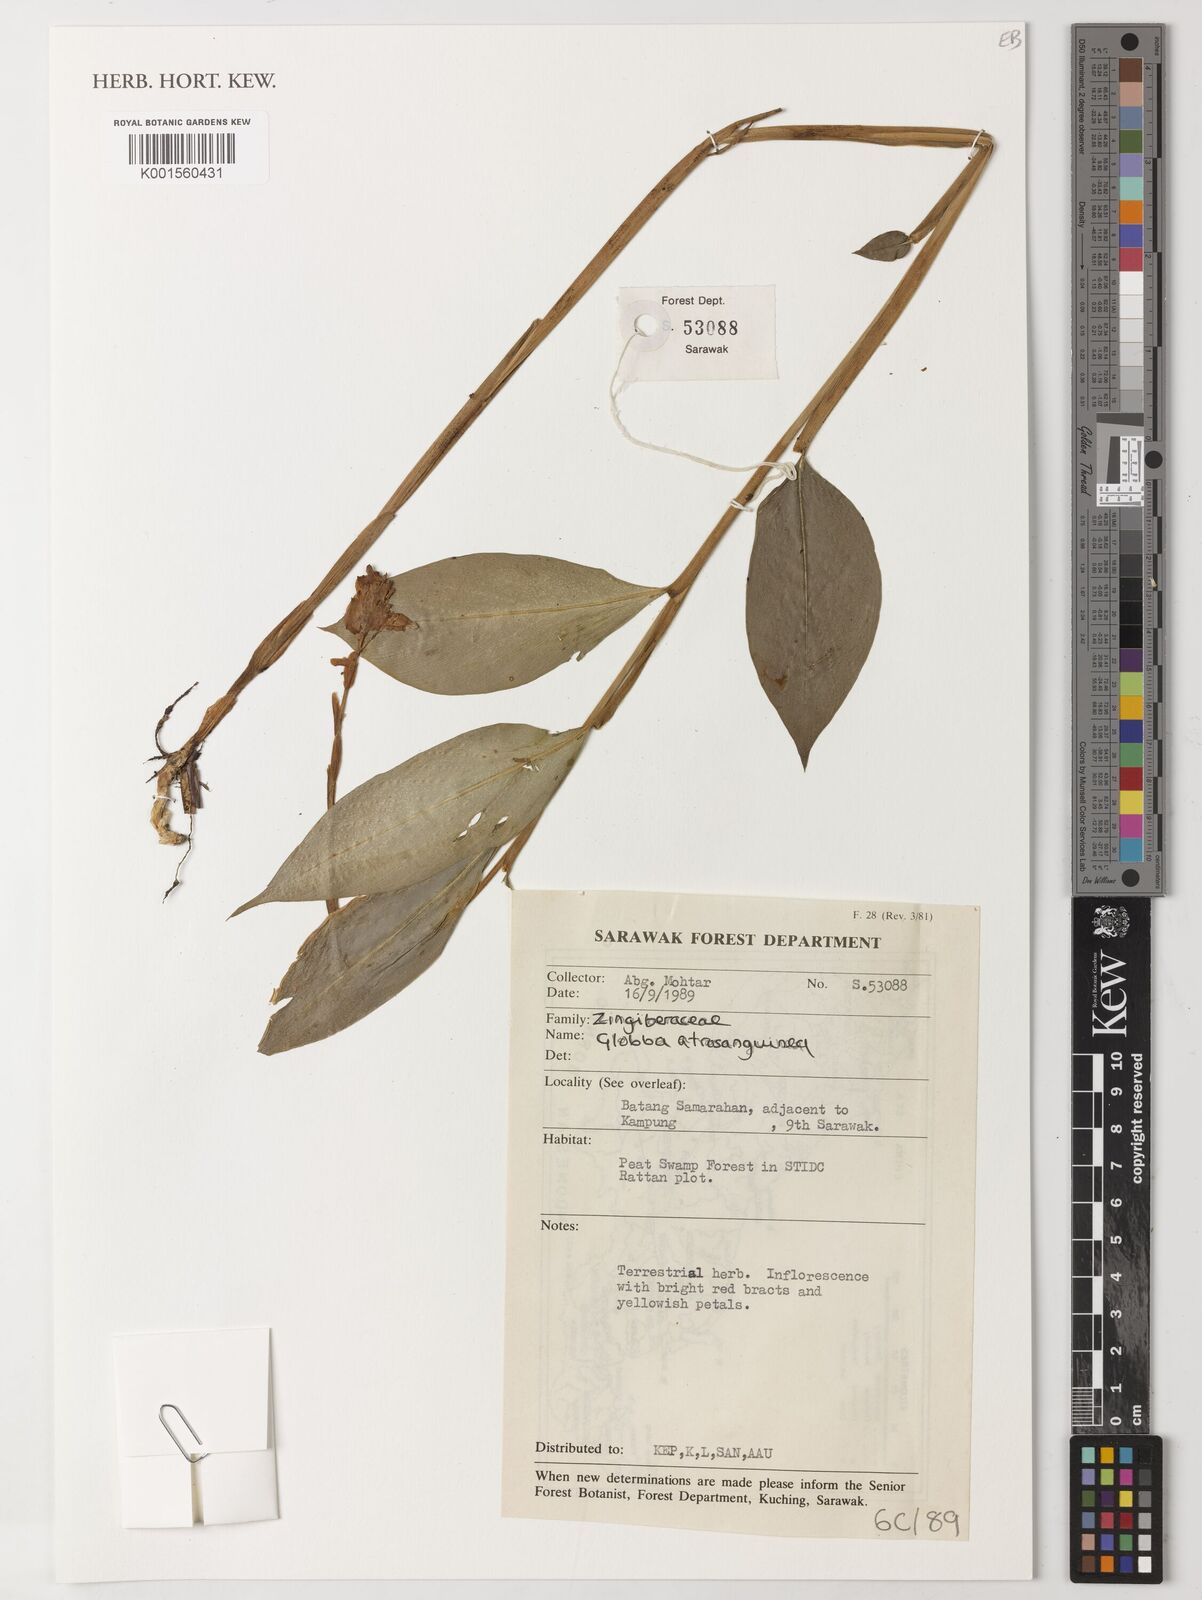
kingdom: Plantae
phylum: Tracheophyta
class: Liliopsida
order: Zingiberales
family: Zingiberaceae
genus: Globba
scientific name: Globba atrosanguinea
